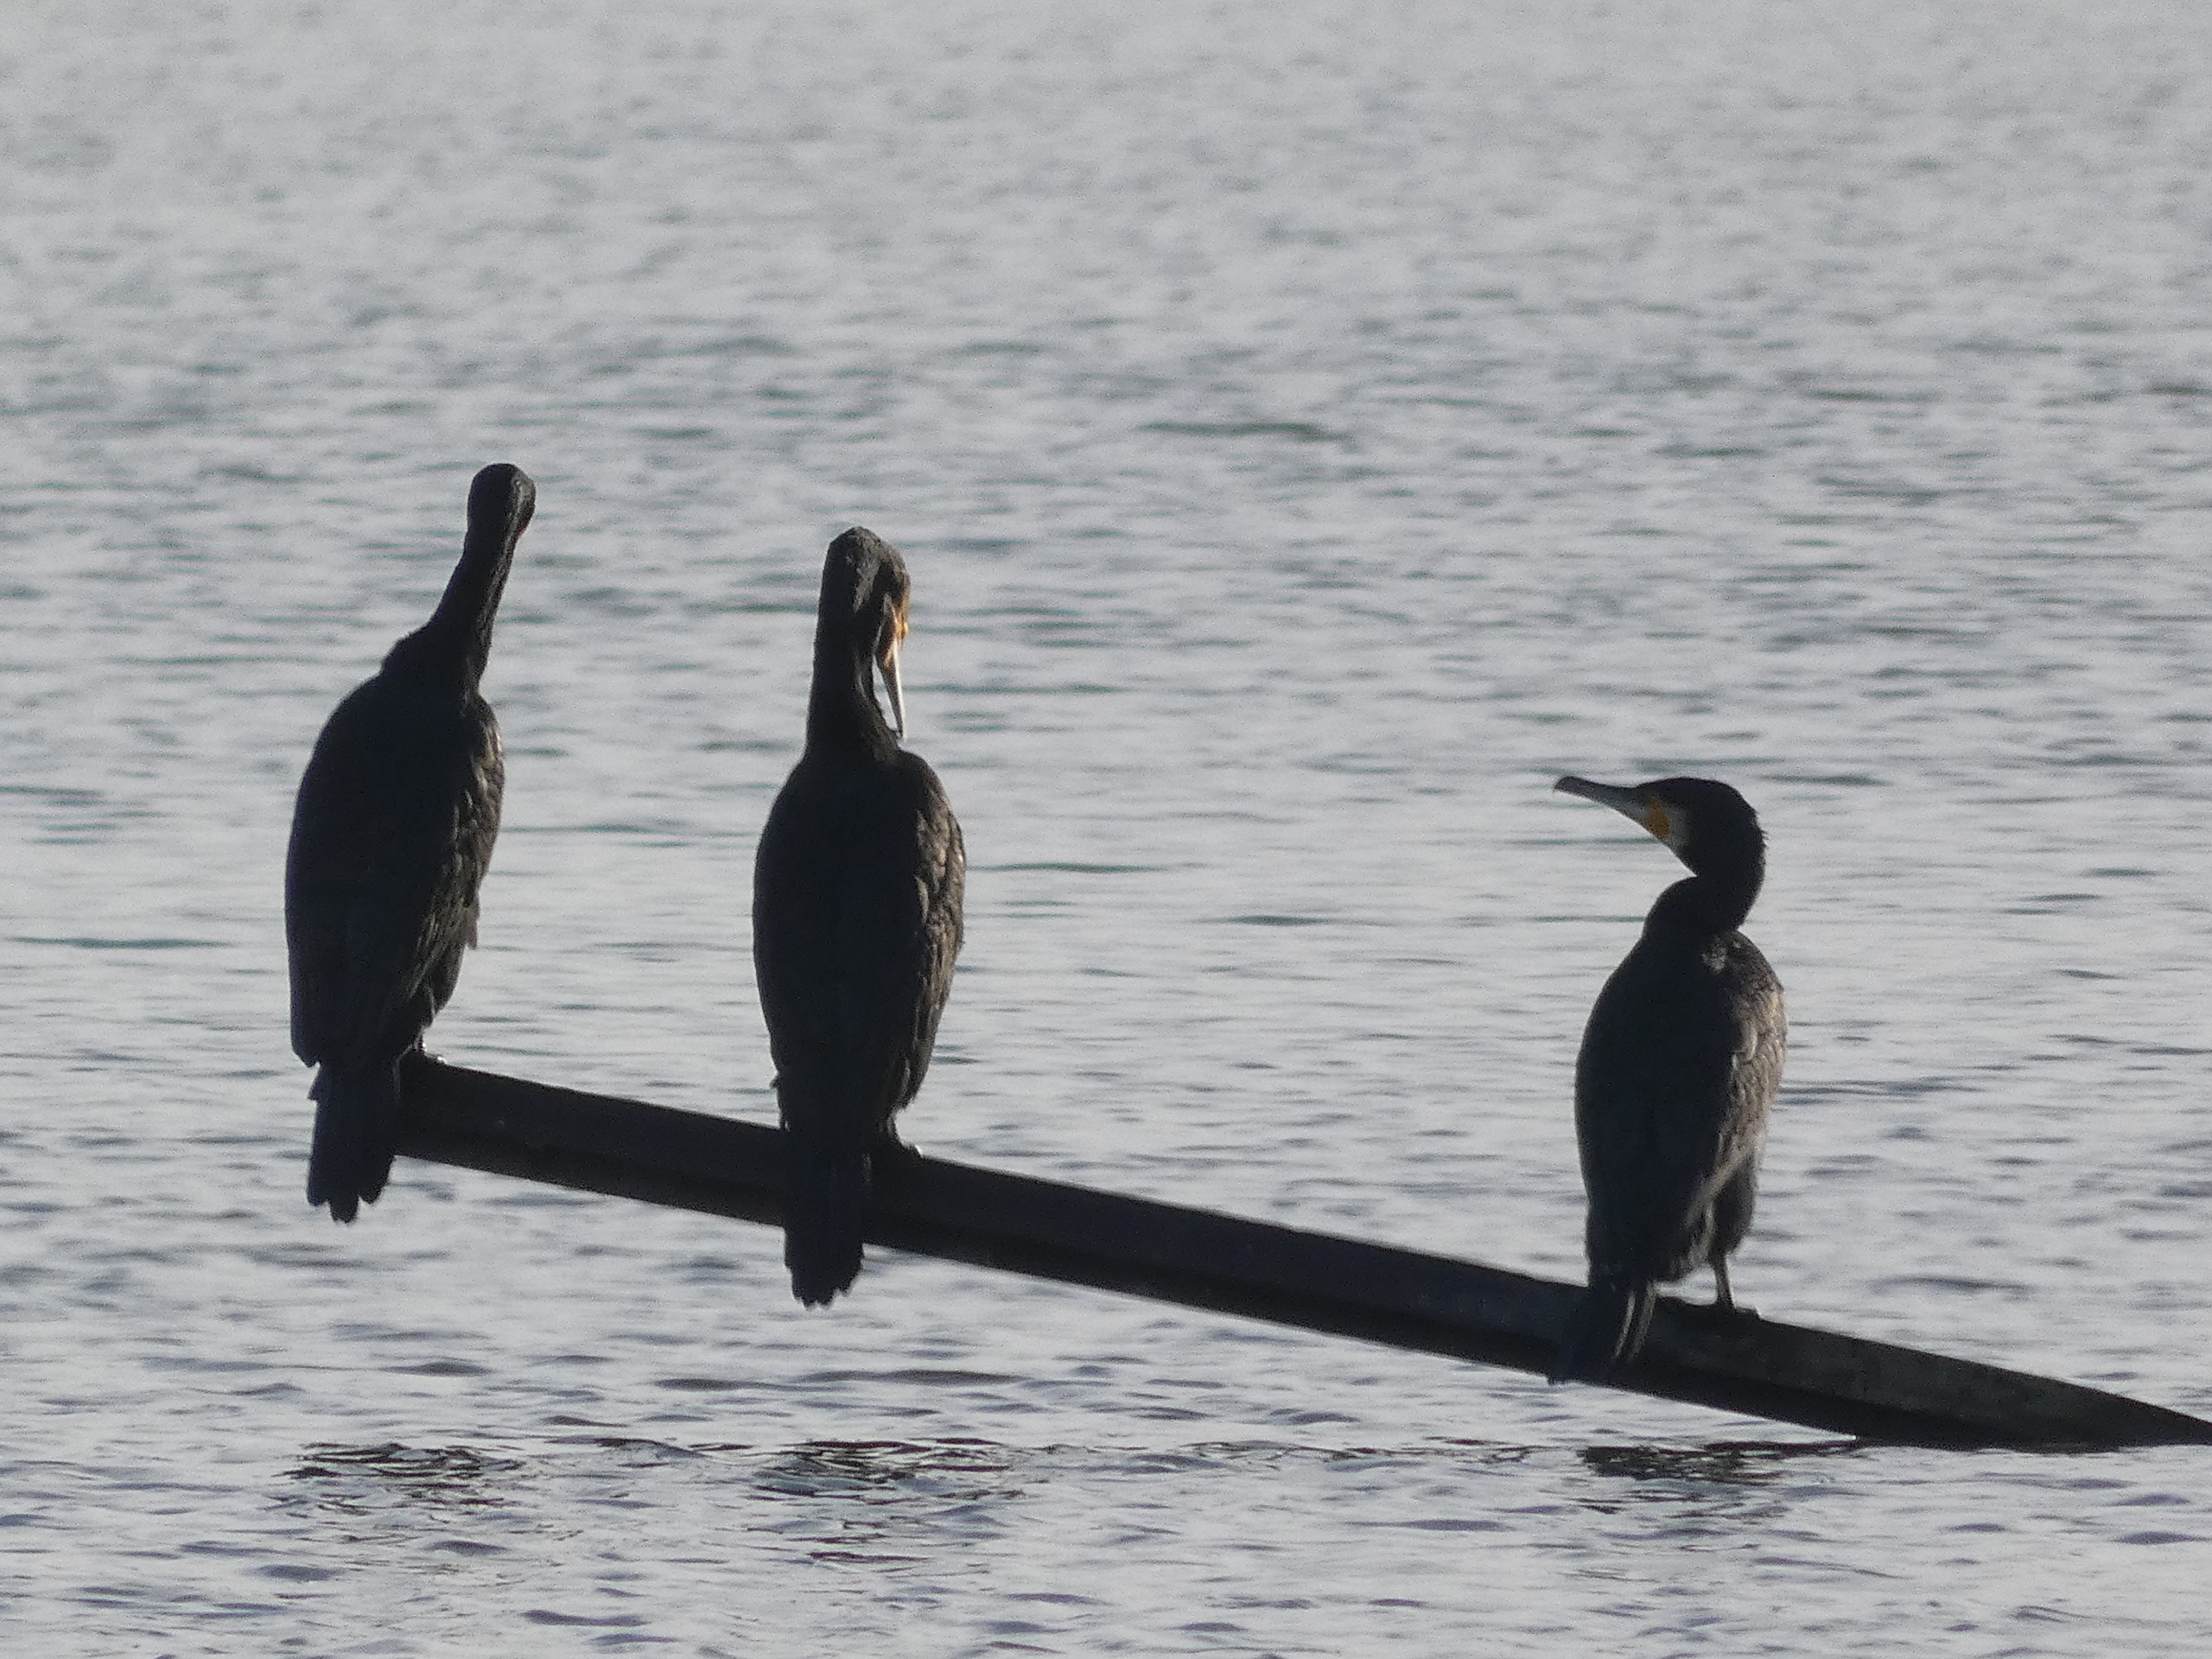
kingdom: Animalia
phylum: Chordata
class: Aves
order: Suliformes
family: Phalacrocoracidae
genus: Phalacrocorax
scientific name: Phalacrocorax carbo
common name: Skarv
